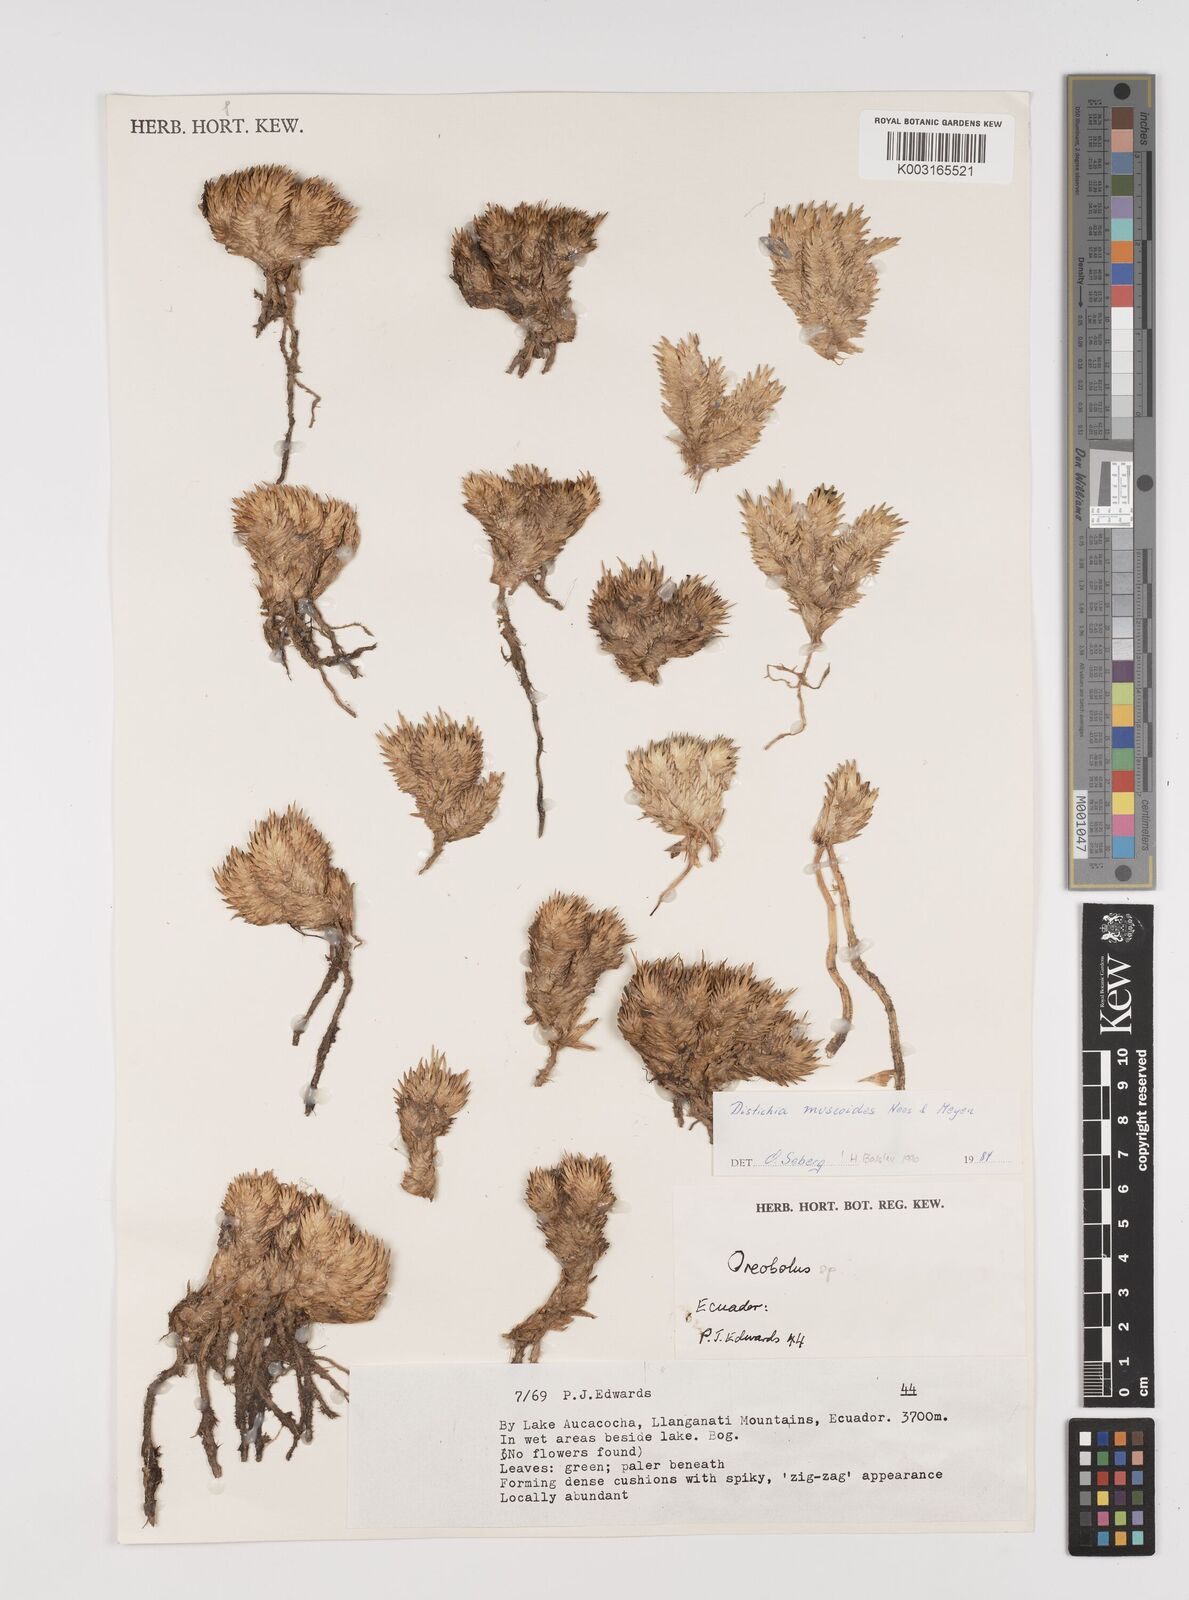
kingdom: Plantae
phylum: Tracheophyta
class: Liliopsida
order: Poales
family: Juncaceae
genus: Distichia
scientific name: Distichia muscoides
